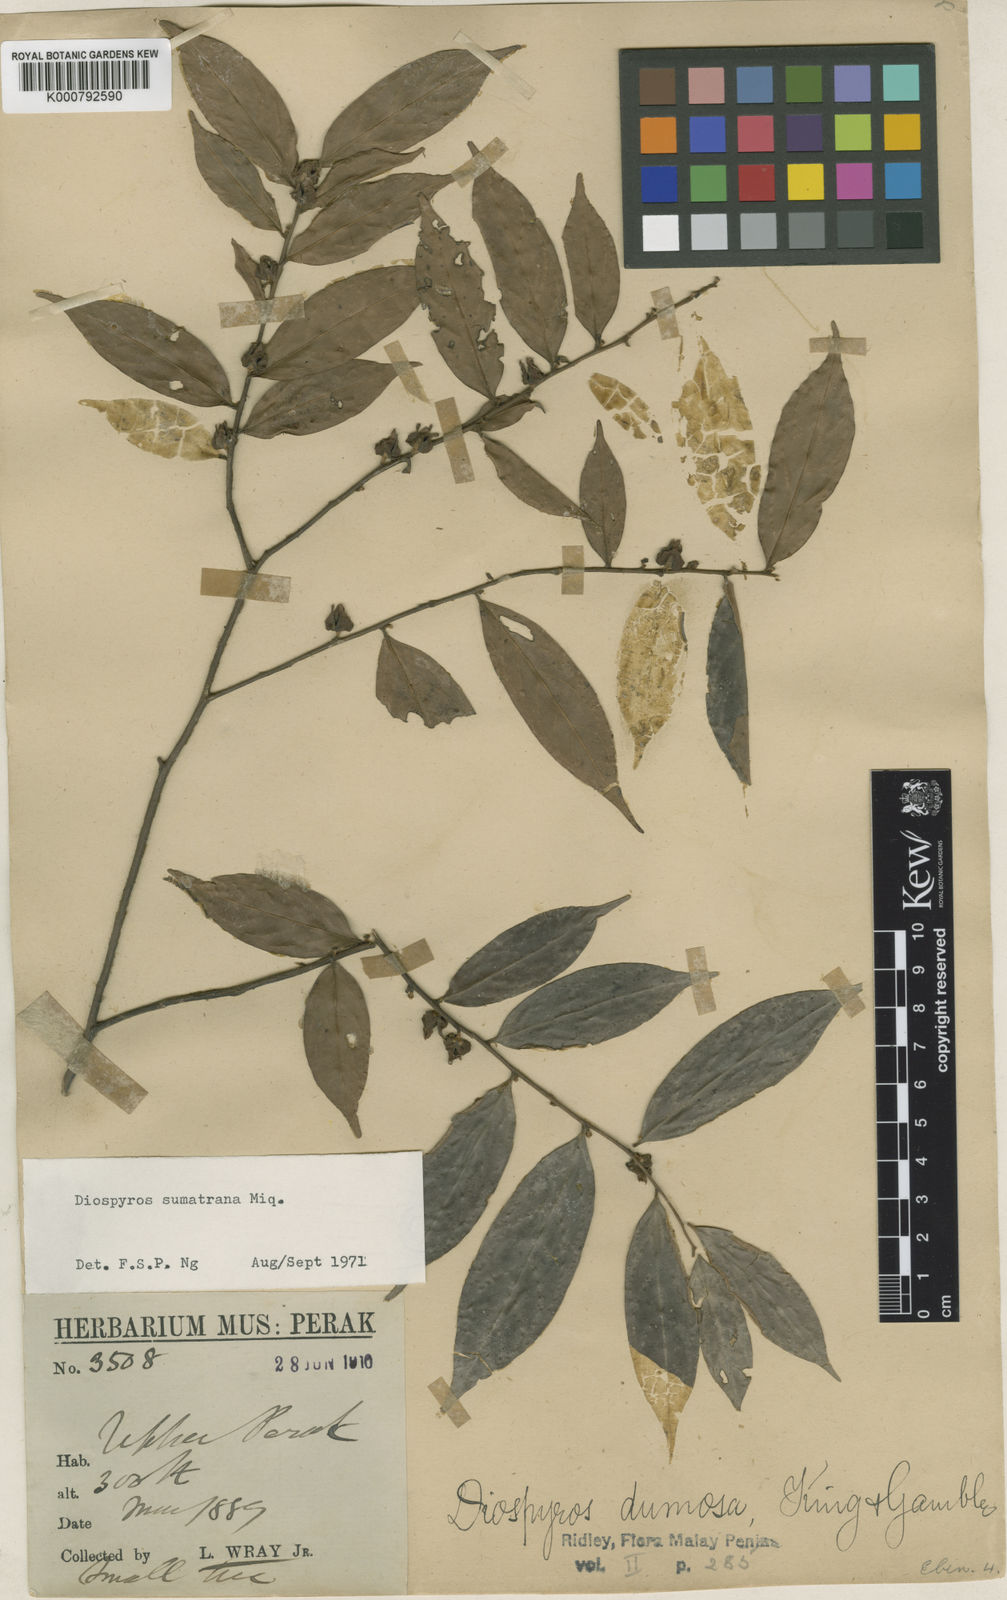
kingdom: Plantae
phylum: Tracheophyta
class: Magnoliopsida
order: Ericales
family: Ebenaceae
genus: Diospyros
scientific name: Diospyros sumatrana
